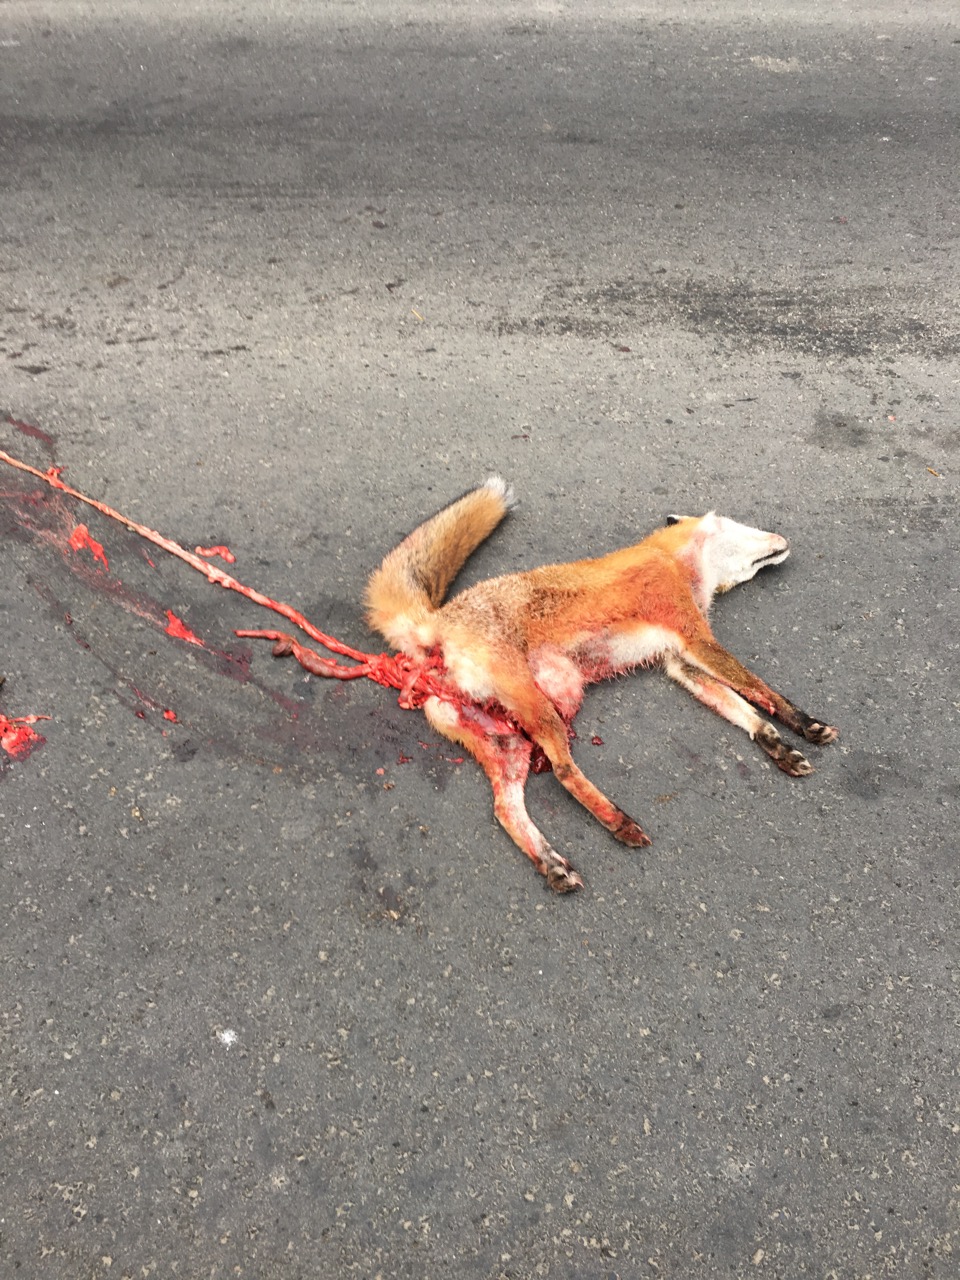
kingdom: Animalia
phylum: Chordata
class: Mammalia
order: Carnivora
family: Canidae
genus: Vulpes
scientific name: Vulpes vulpes
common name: Red fox
